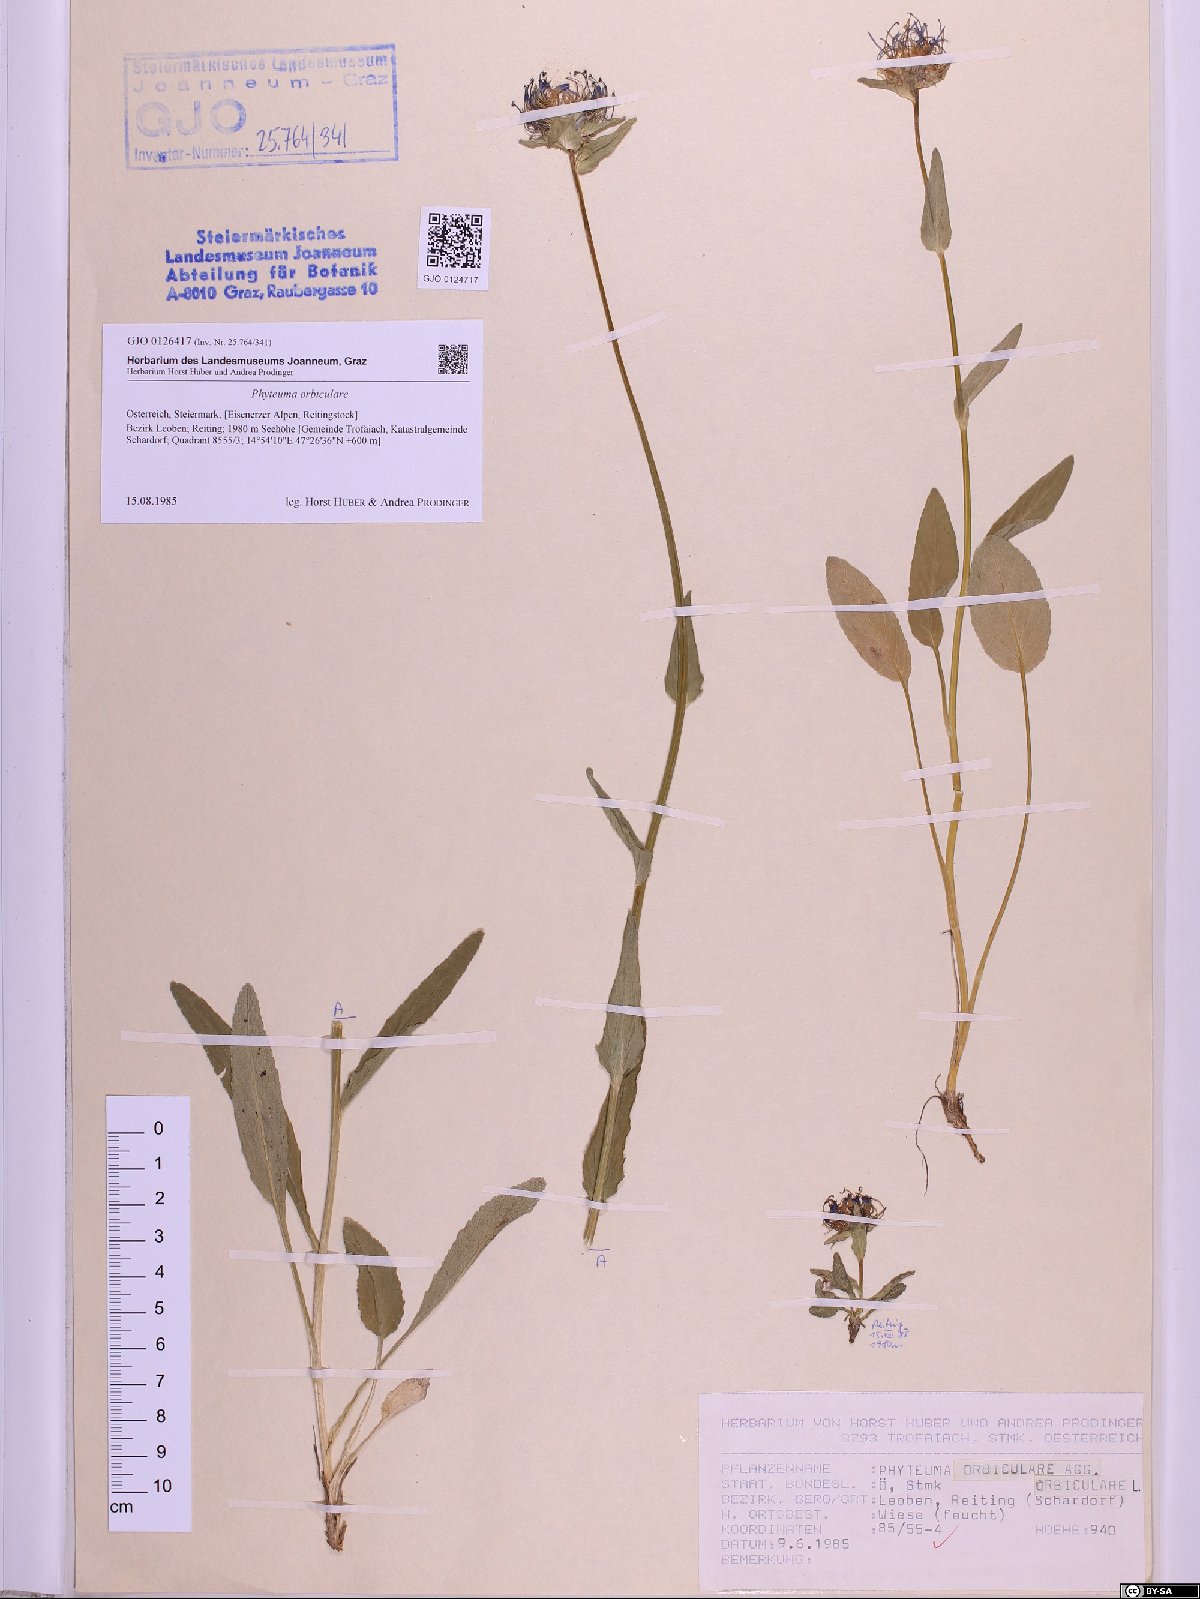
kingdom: Plantae
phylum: Tracheophyta
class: Magnoliopsida
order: Asterales
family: Campanulaceae
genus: Phyteuma
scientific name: Phyteuma orbiculare
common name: Round-headed rampion
